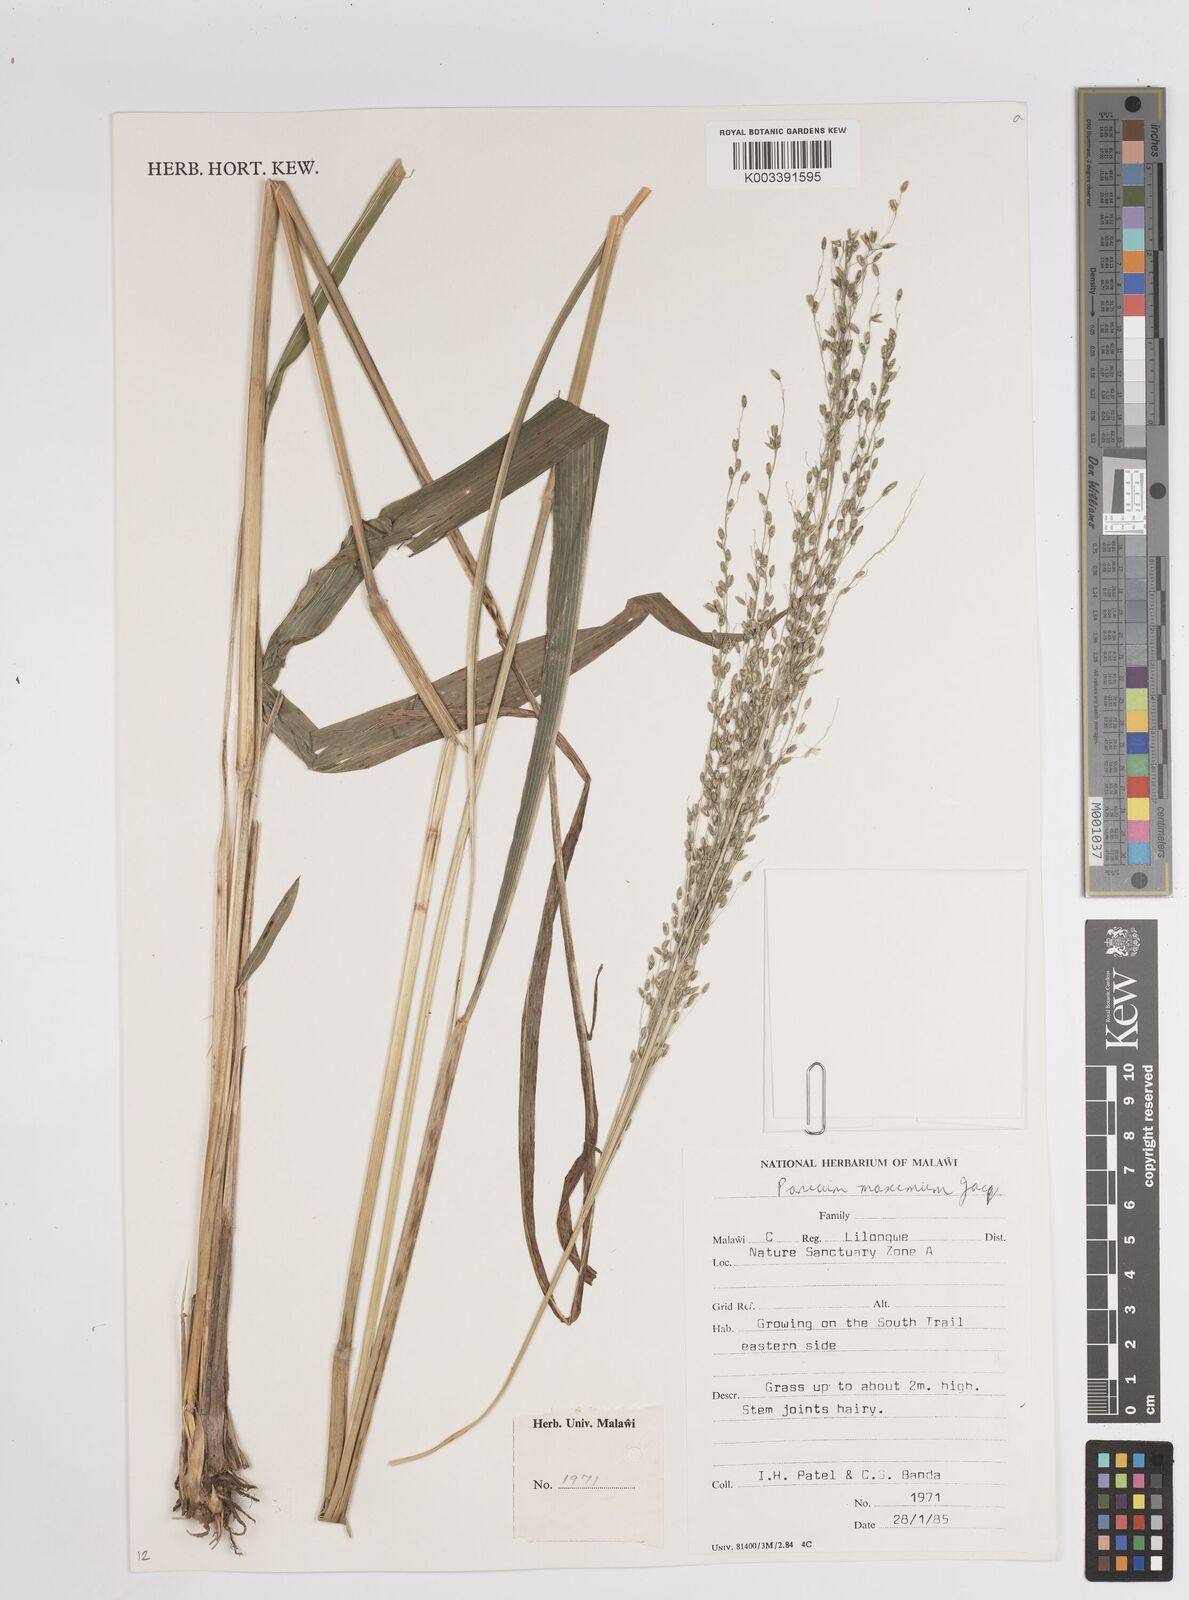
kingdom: Plantae
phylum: Tracheophyta
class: Liliopsida
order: Poales
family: Poaceae
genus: Megathyrsus
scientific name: Megathyrsus maximus
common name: Guineagrass
